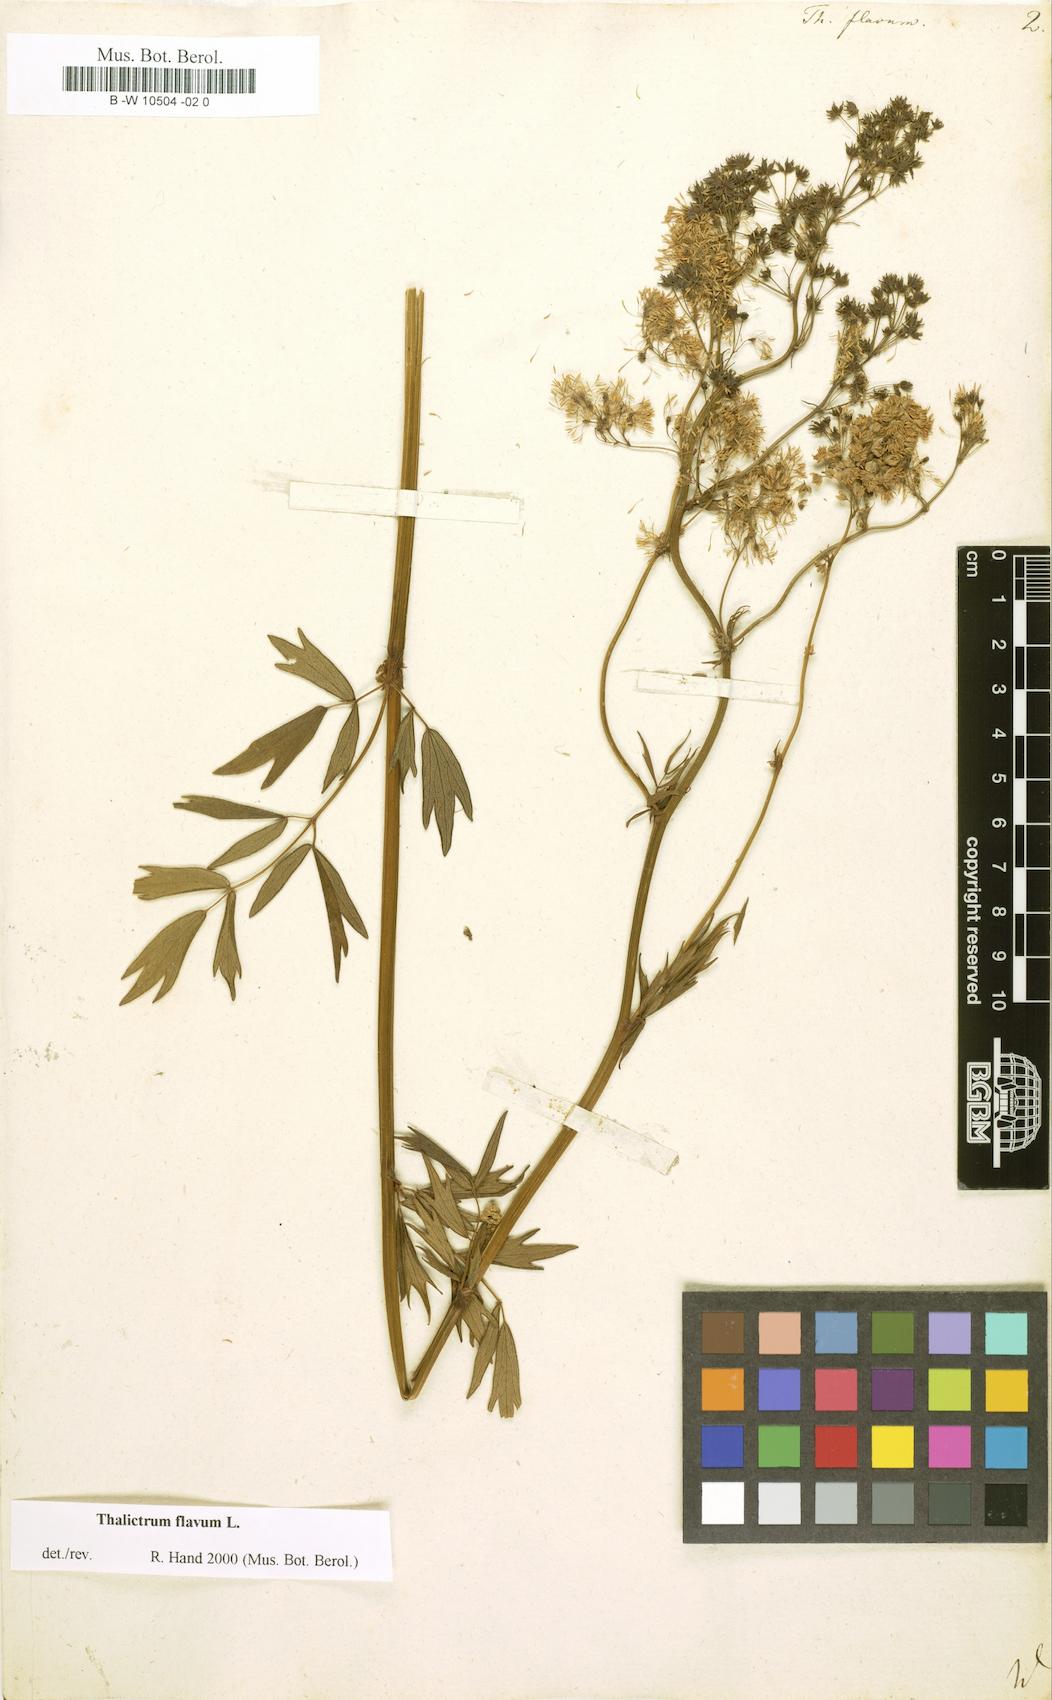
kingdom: Plantae
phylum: Tracheophyta
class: Magnoliopsida
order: Ranunculales
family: Ranunculaceae
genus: Thalictrum
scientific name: Thalictrum flavum
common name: Common meadow-rue
